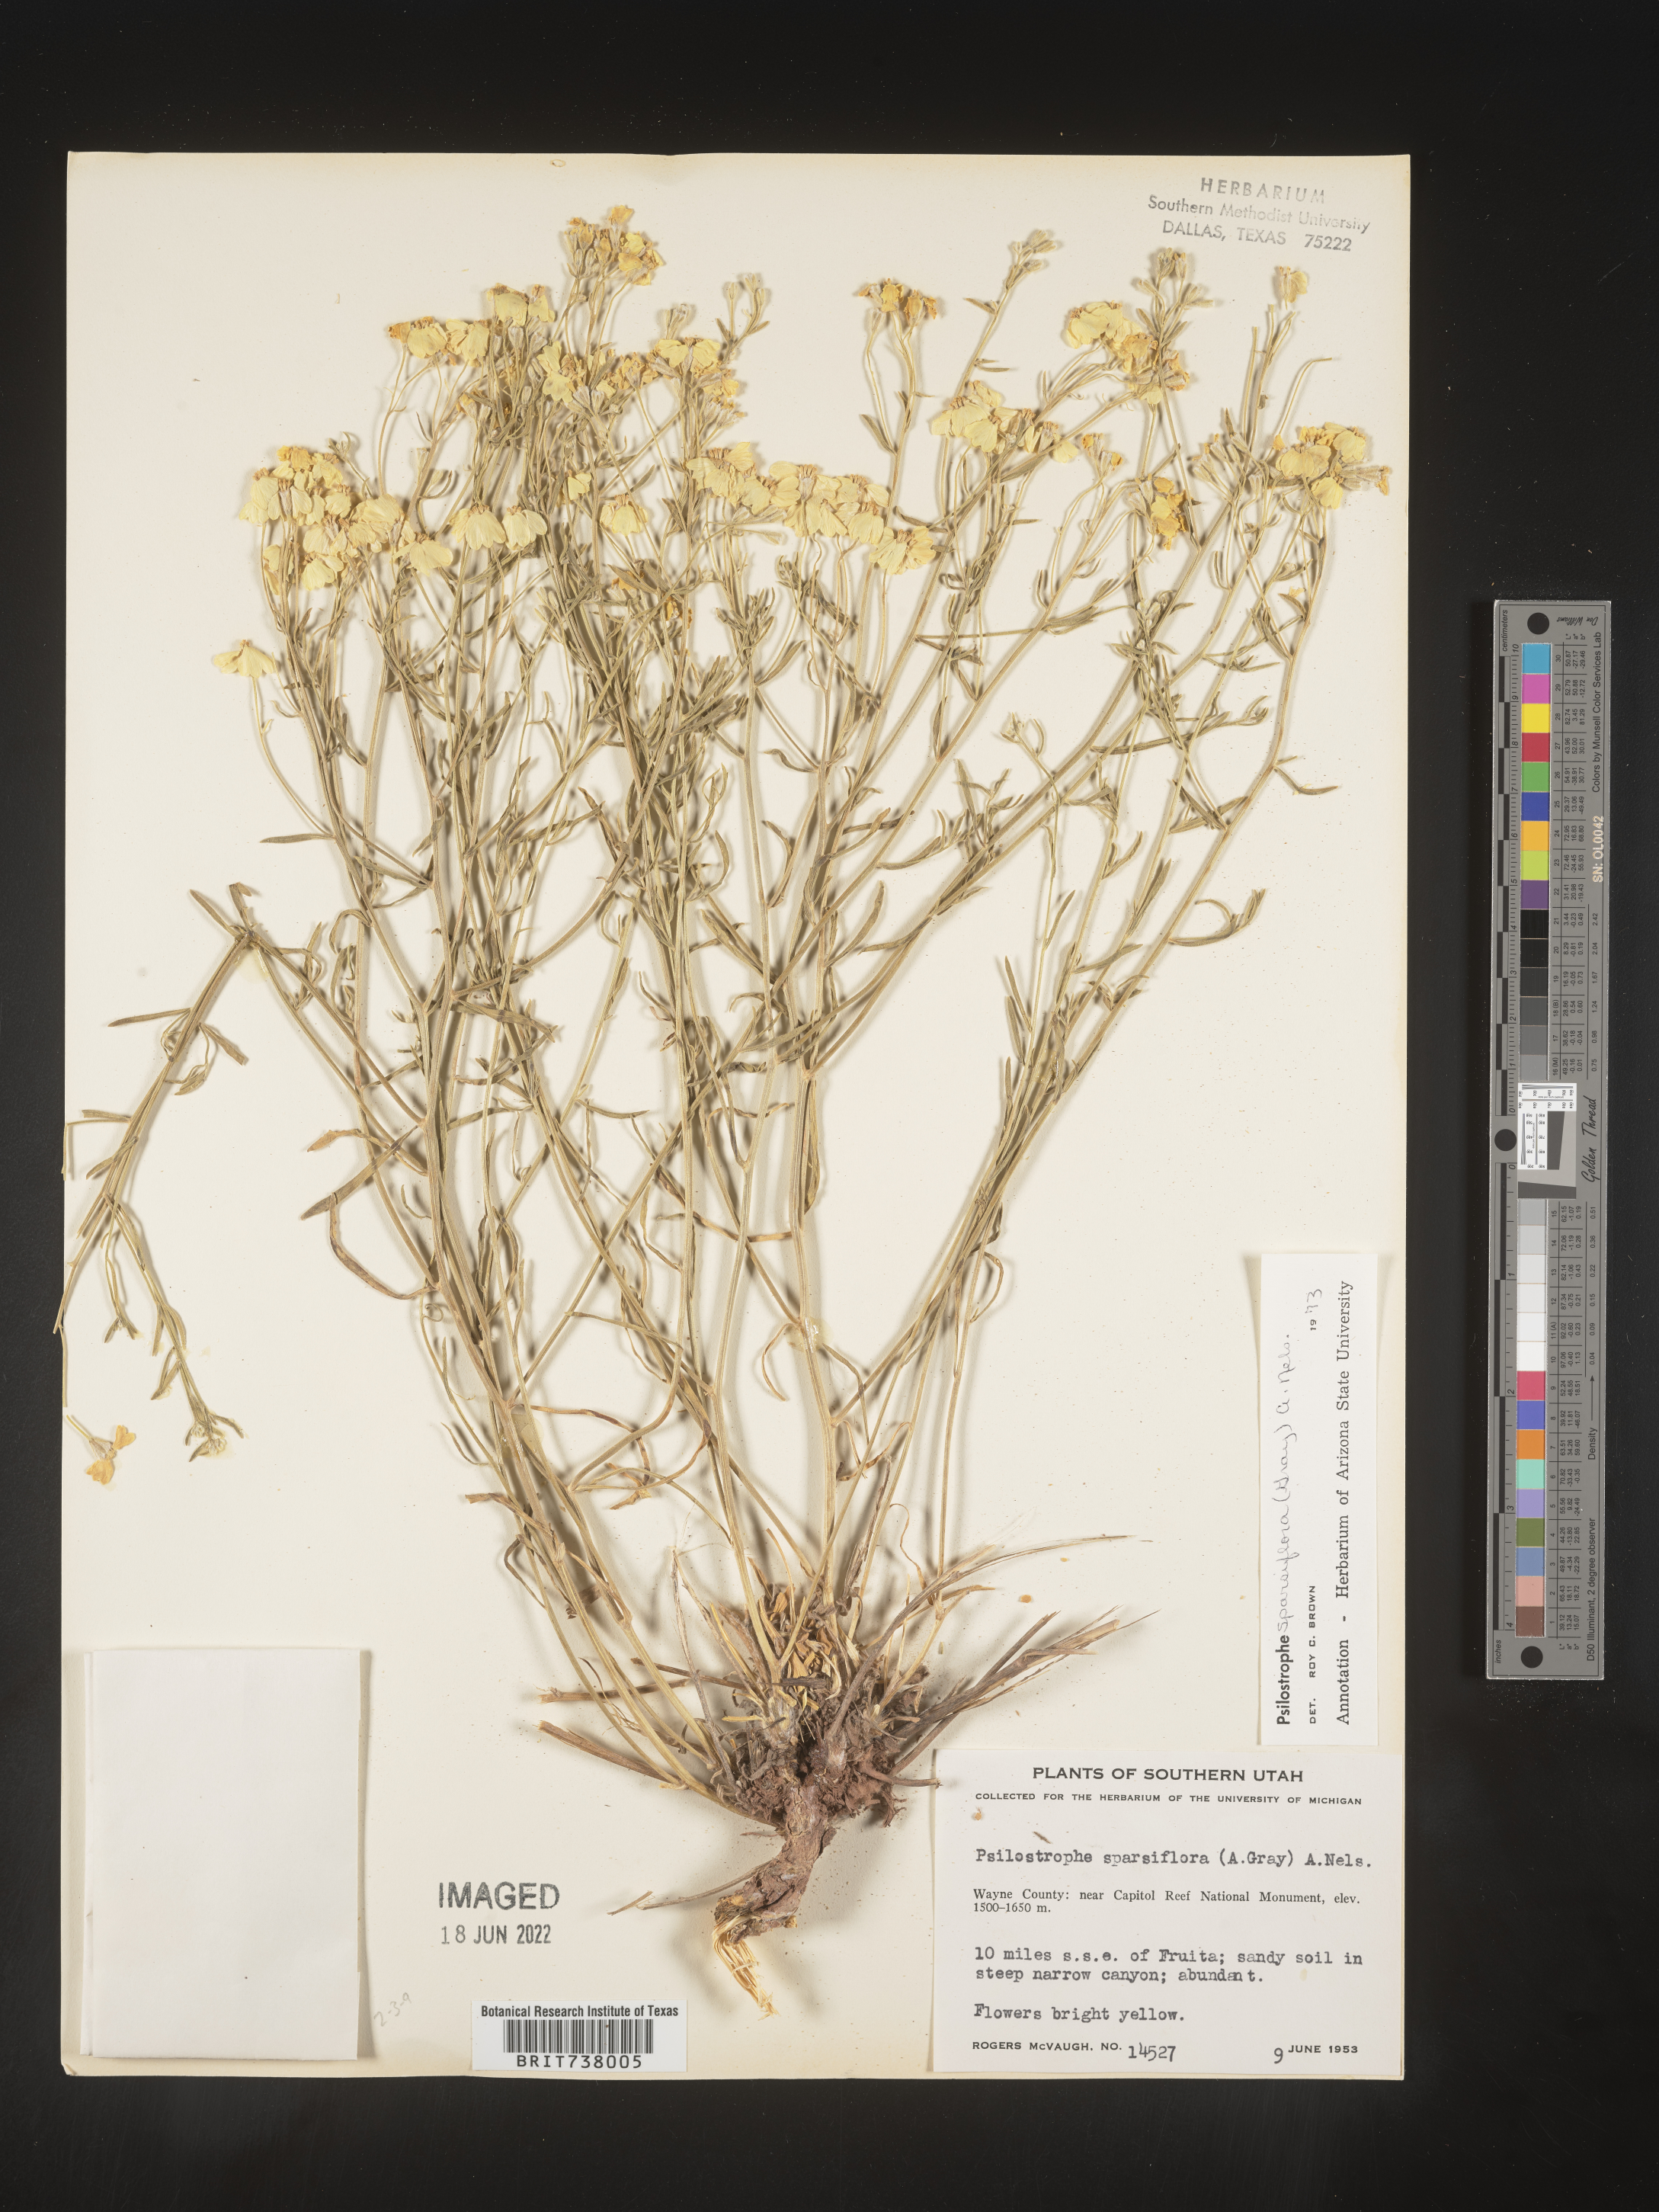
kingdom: Plantae
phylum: Tracheophyta
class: Magnoliopsida
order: Asterales
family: Asteraceae
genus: Psilostrophe
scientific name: Psilostrophe sparsiflora
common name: Green-stem paper-flower
